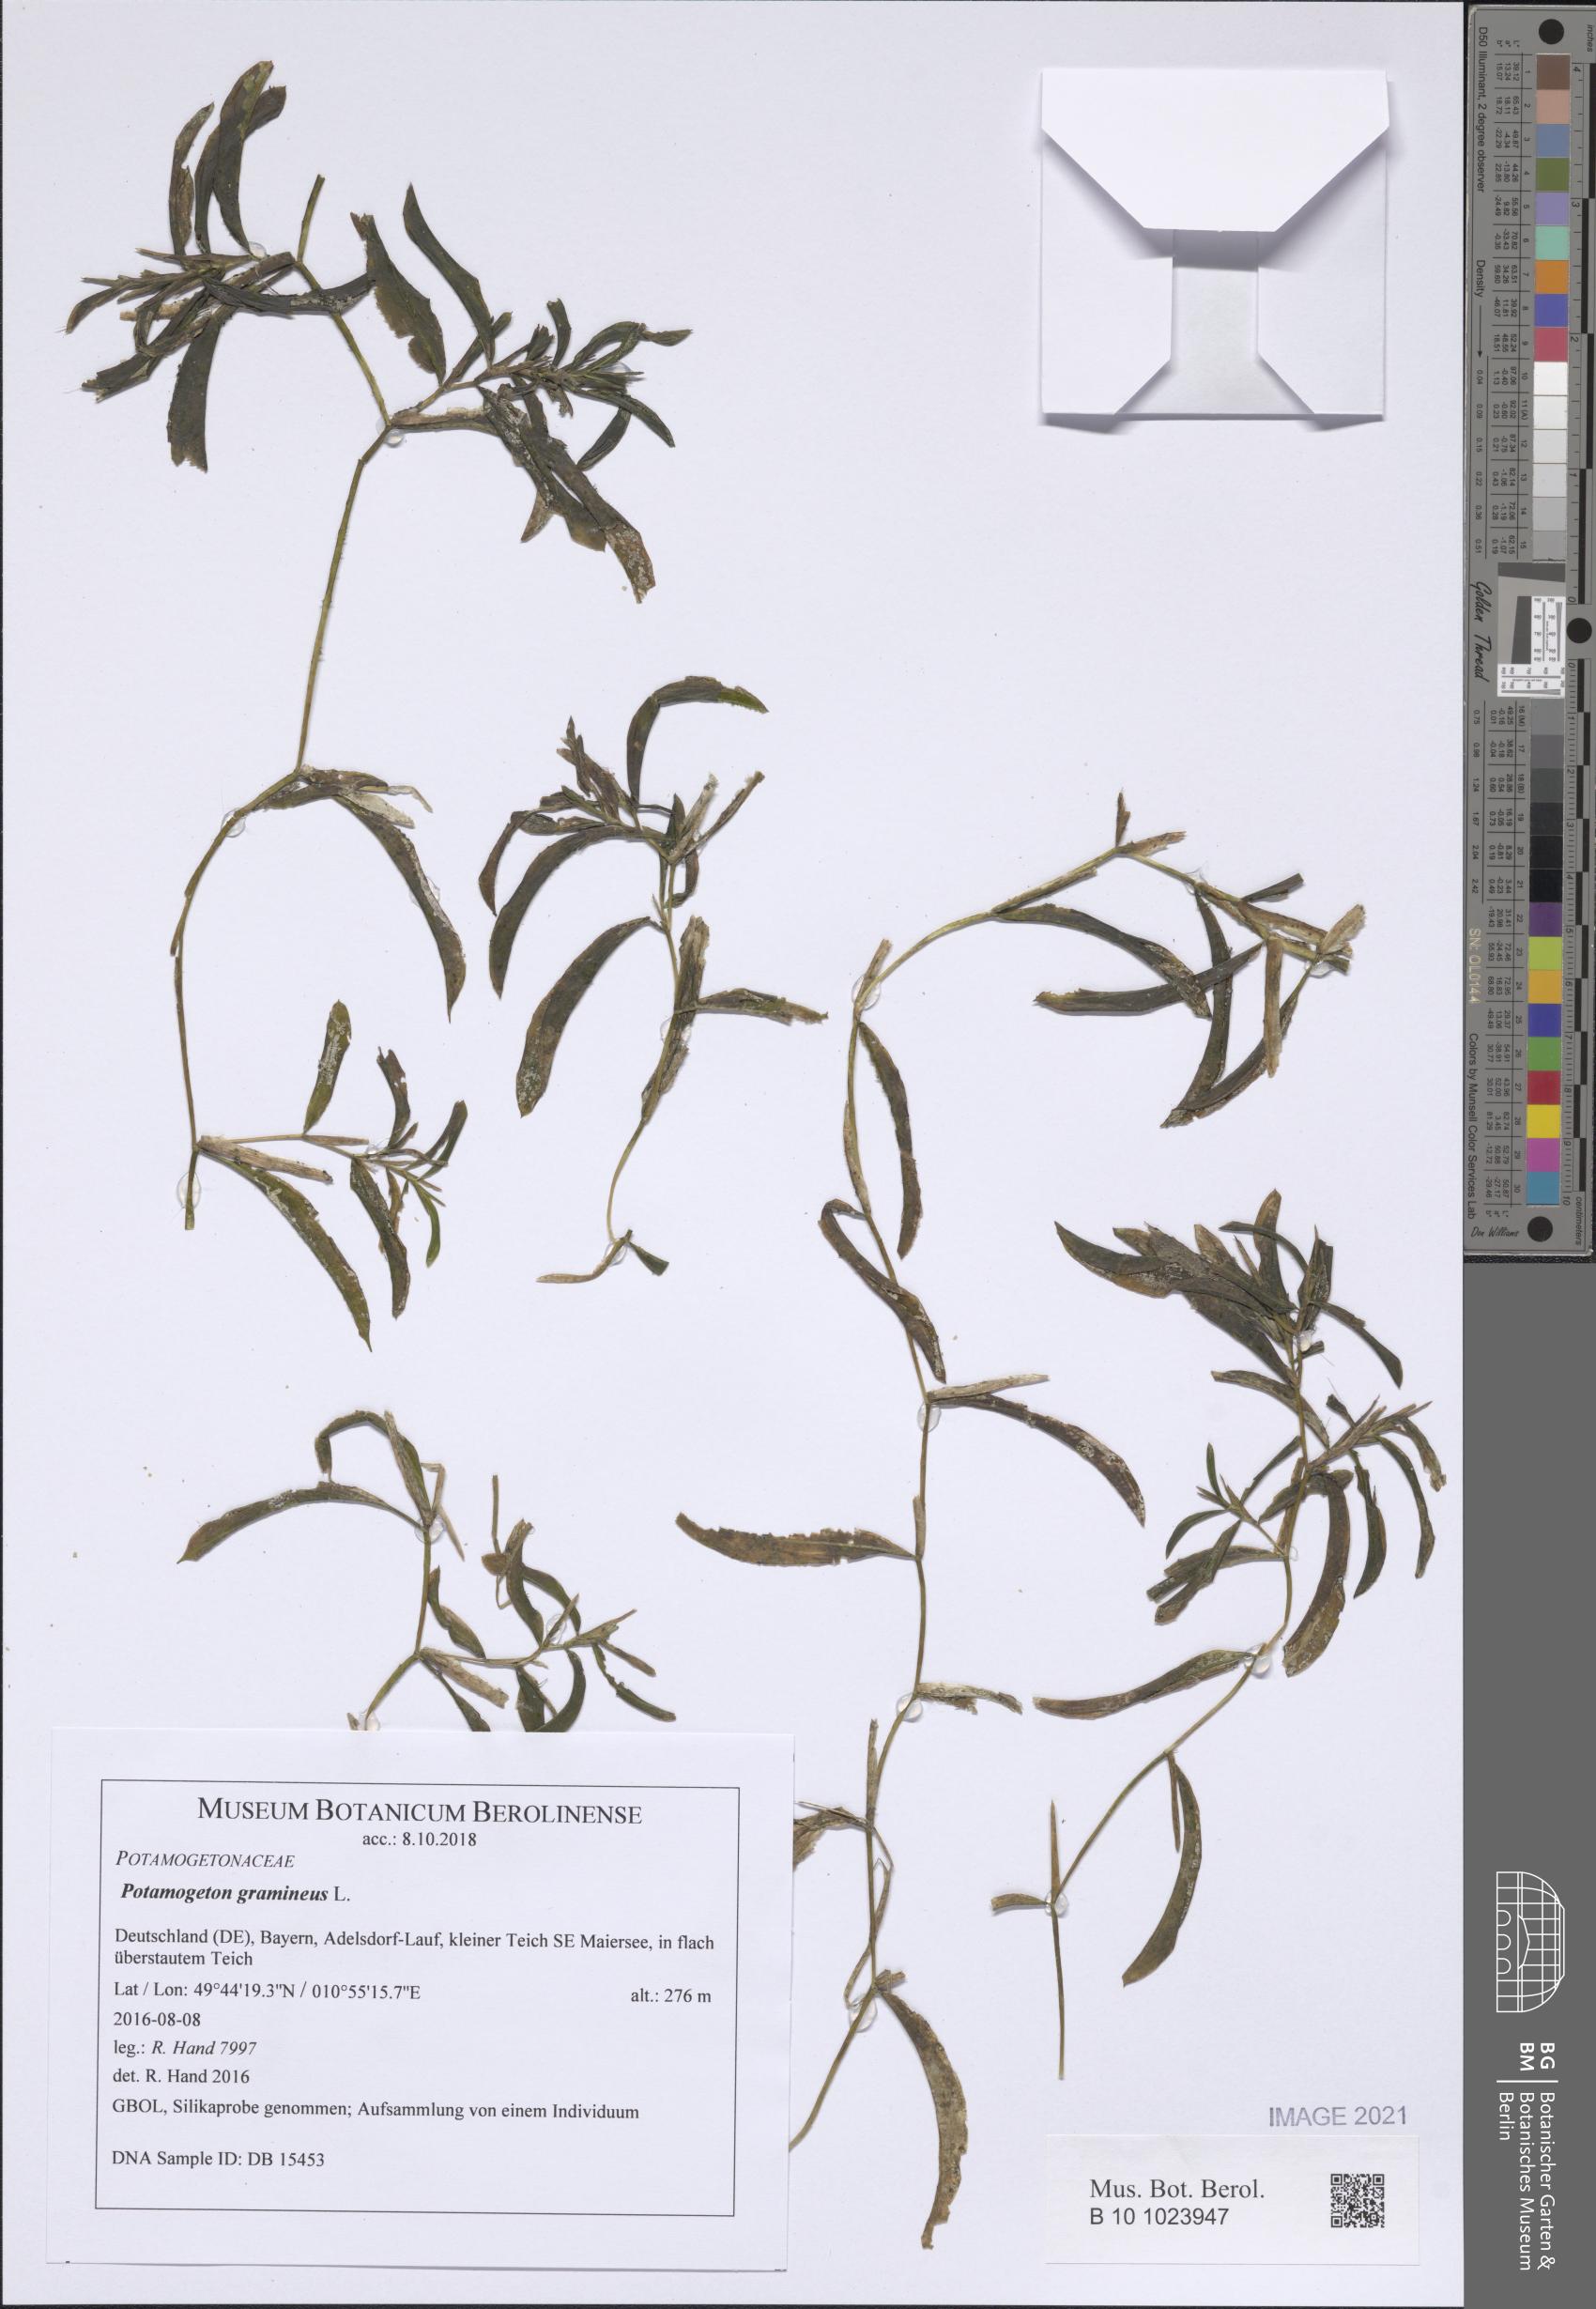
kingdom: Plantae
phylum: Tracheophyta
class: Liliopsida
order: Alismatales
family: Potamogetonaceae
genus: Potamogeton
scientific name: Potamogeton gramineus
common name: Various-leaved pondweed
